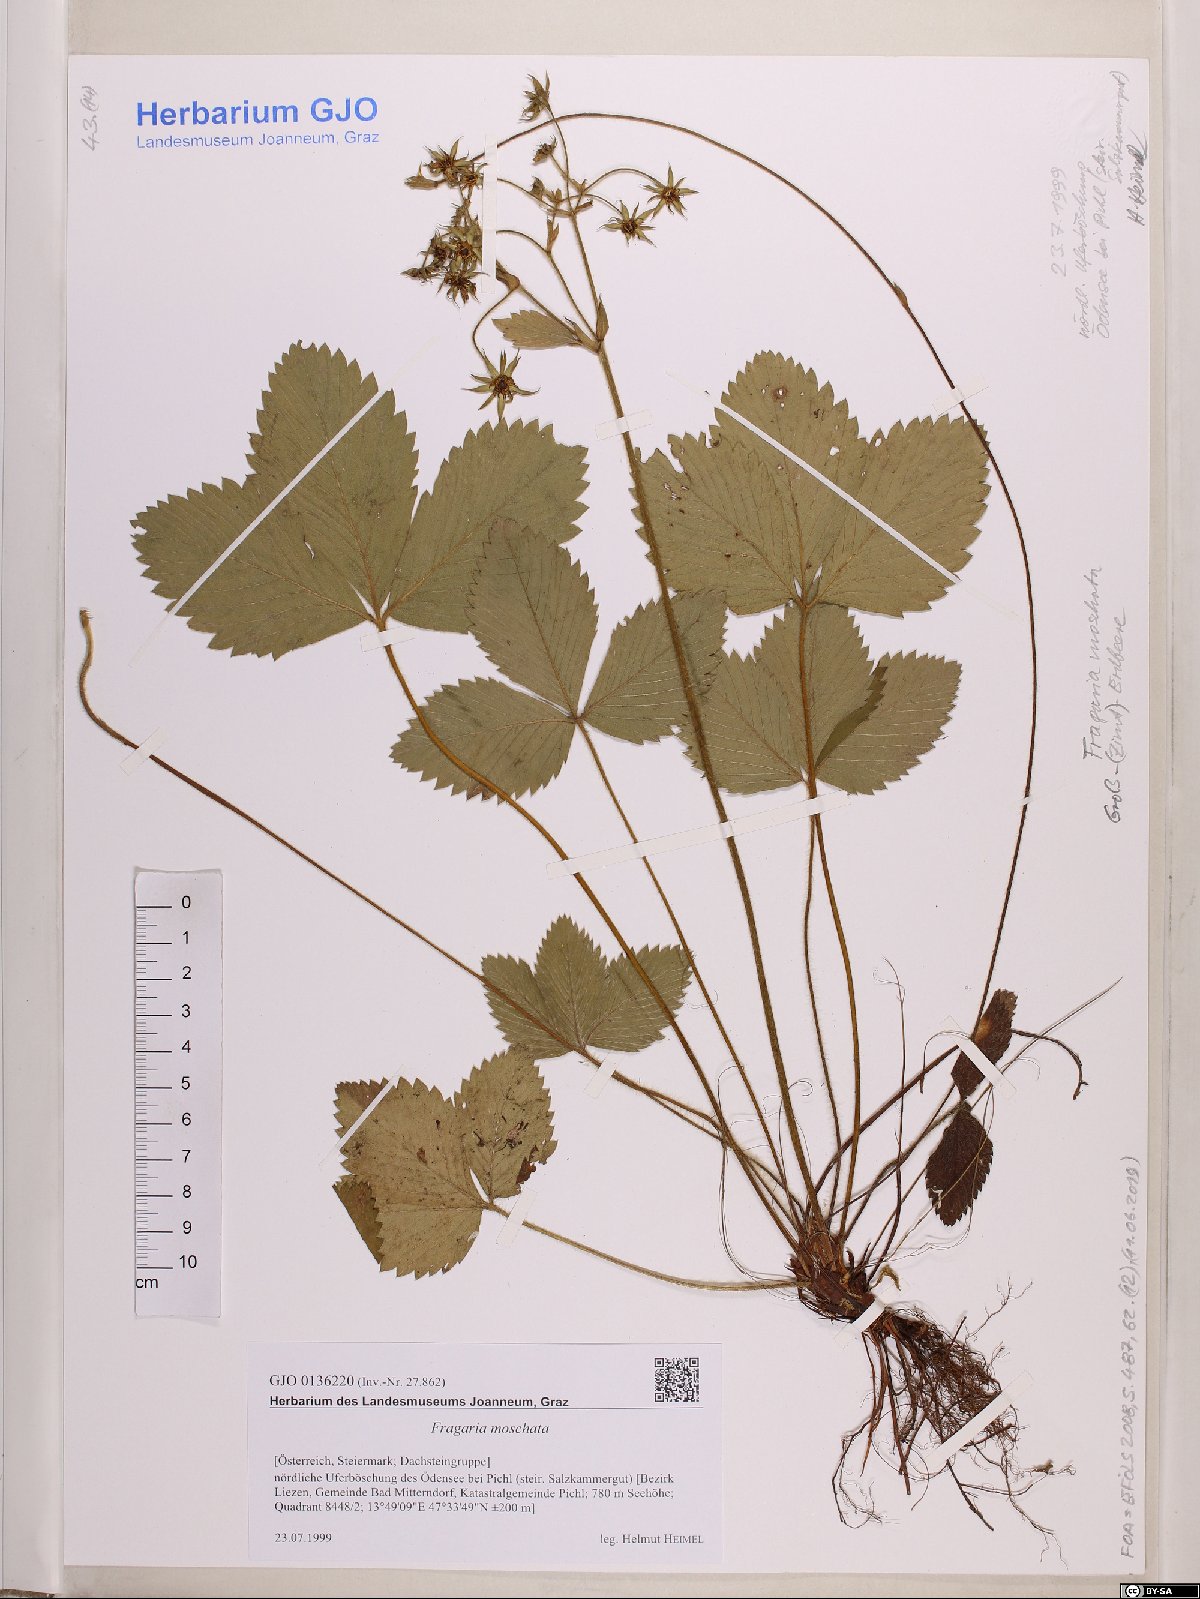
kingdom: Plantae
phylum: Tracheophyta
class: Magnoliopsida
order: Rosales
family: Rosaceae
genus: Fragaria
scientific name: Fragaria moschata
